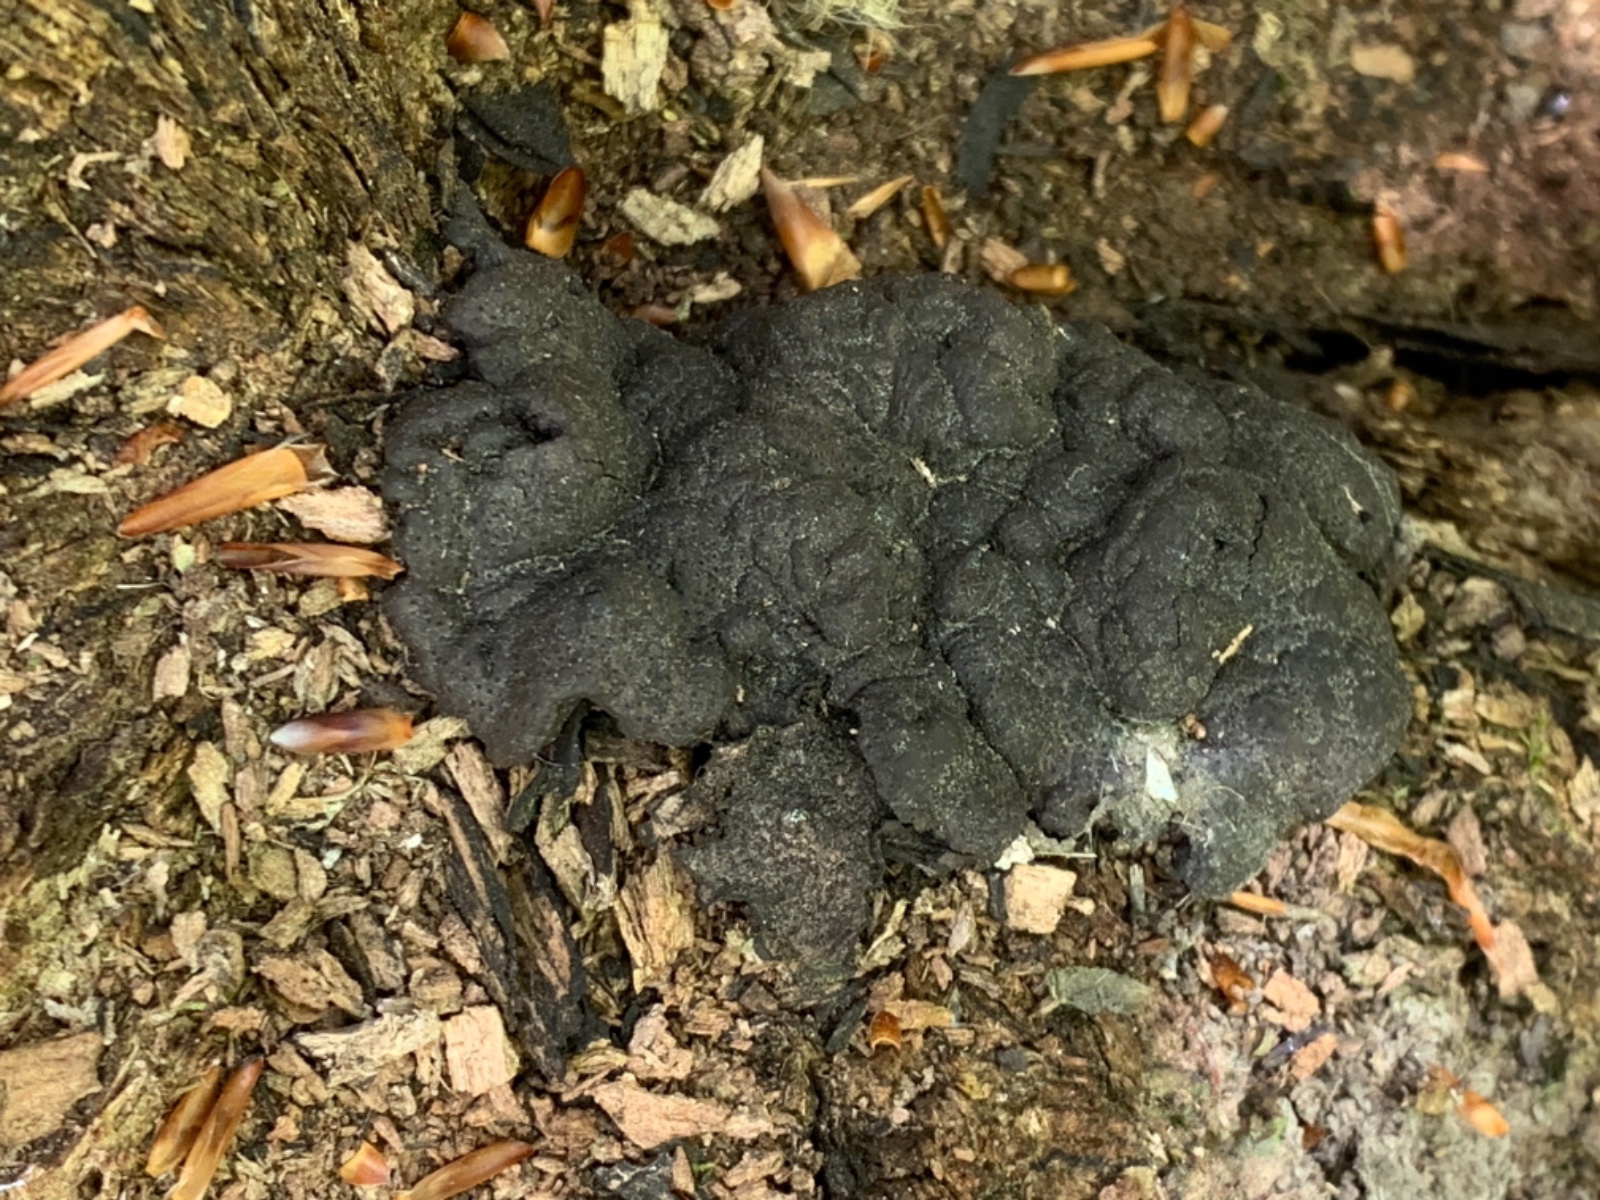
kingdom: Fungi
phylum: Ascomycota
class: Sordariomycetes
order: Xylariales
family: Xylariaceae
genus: Kretzschmaria
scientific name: Kretzschmaria deusta
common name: stor kulsvamp
